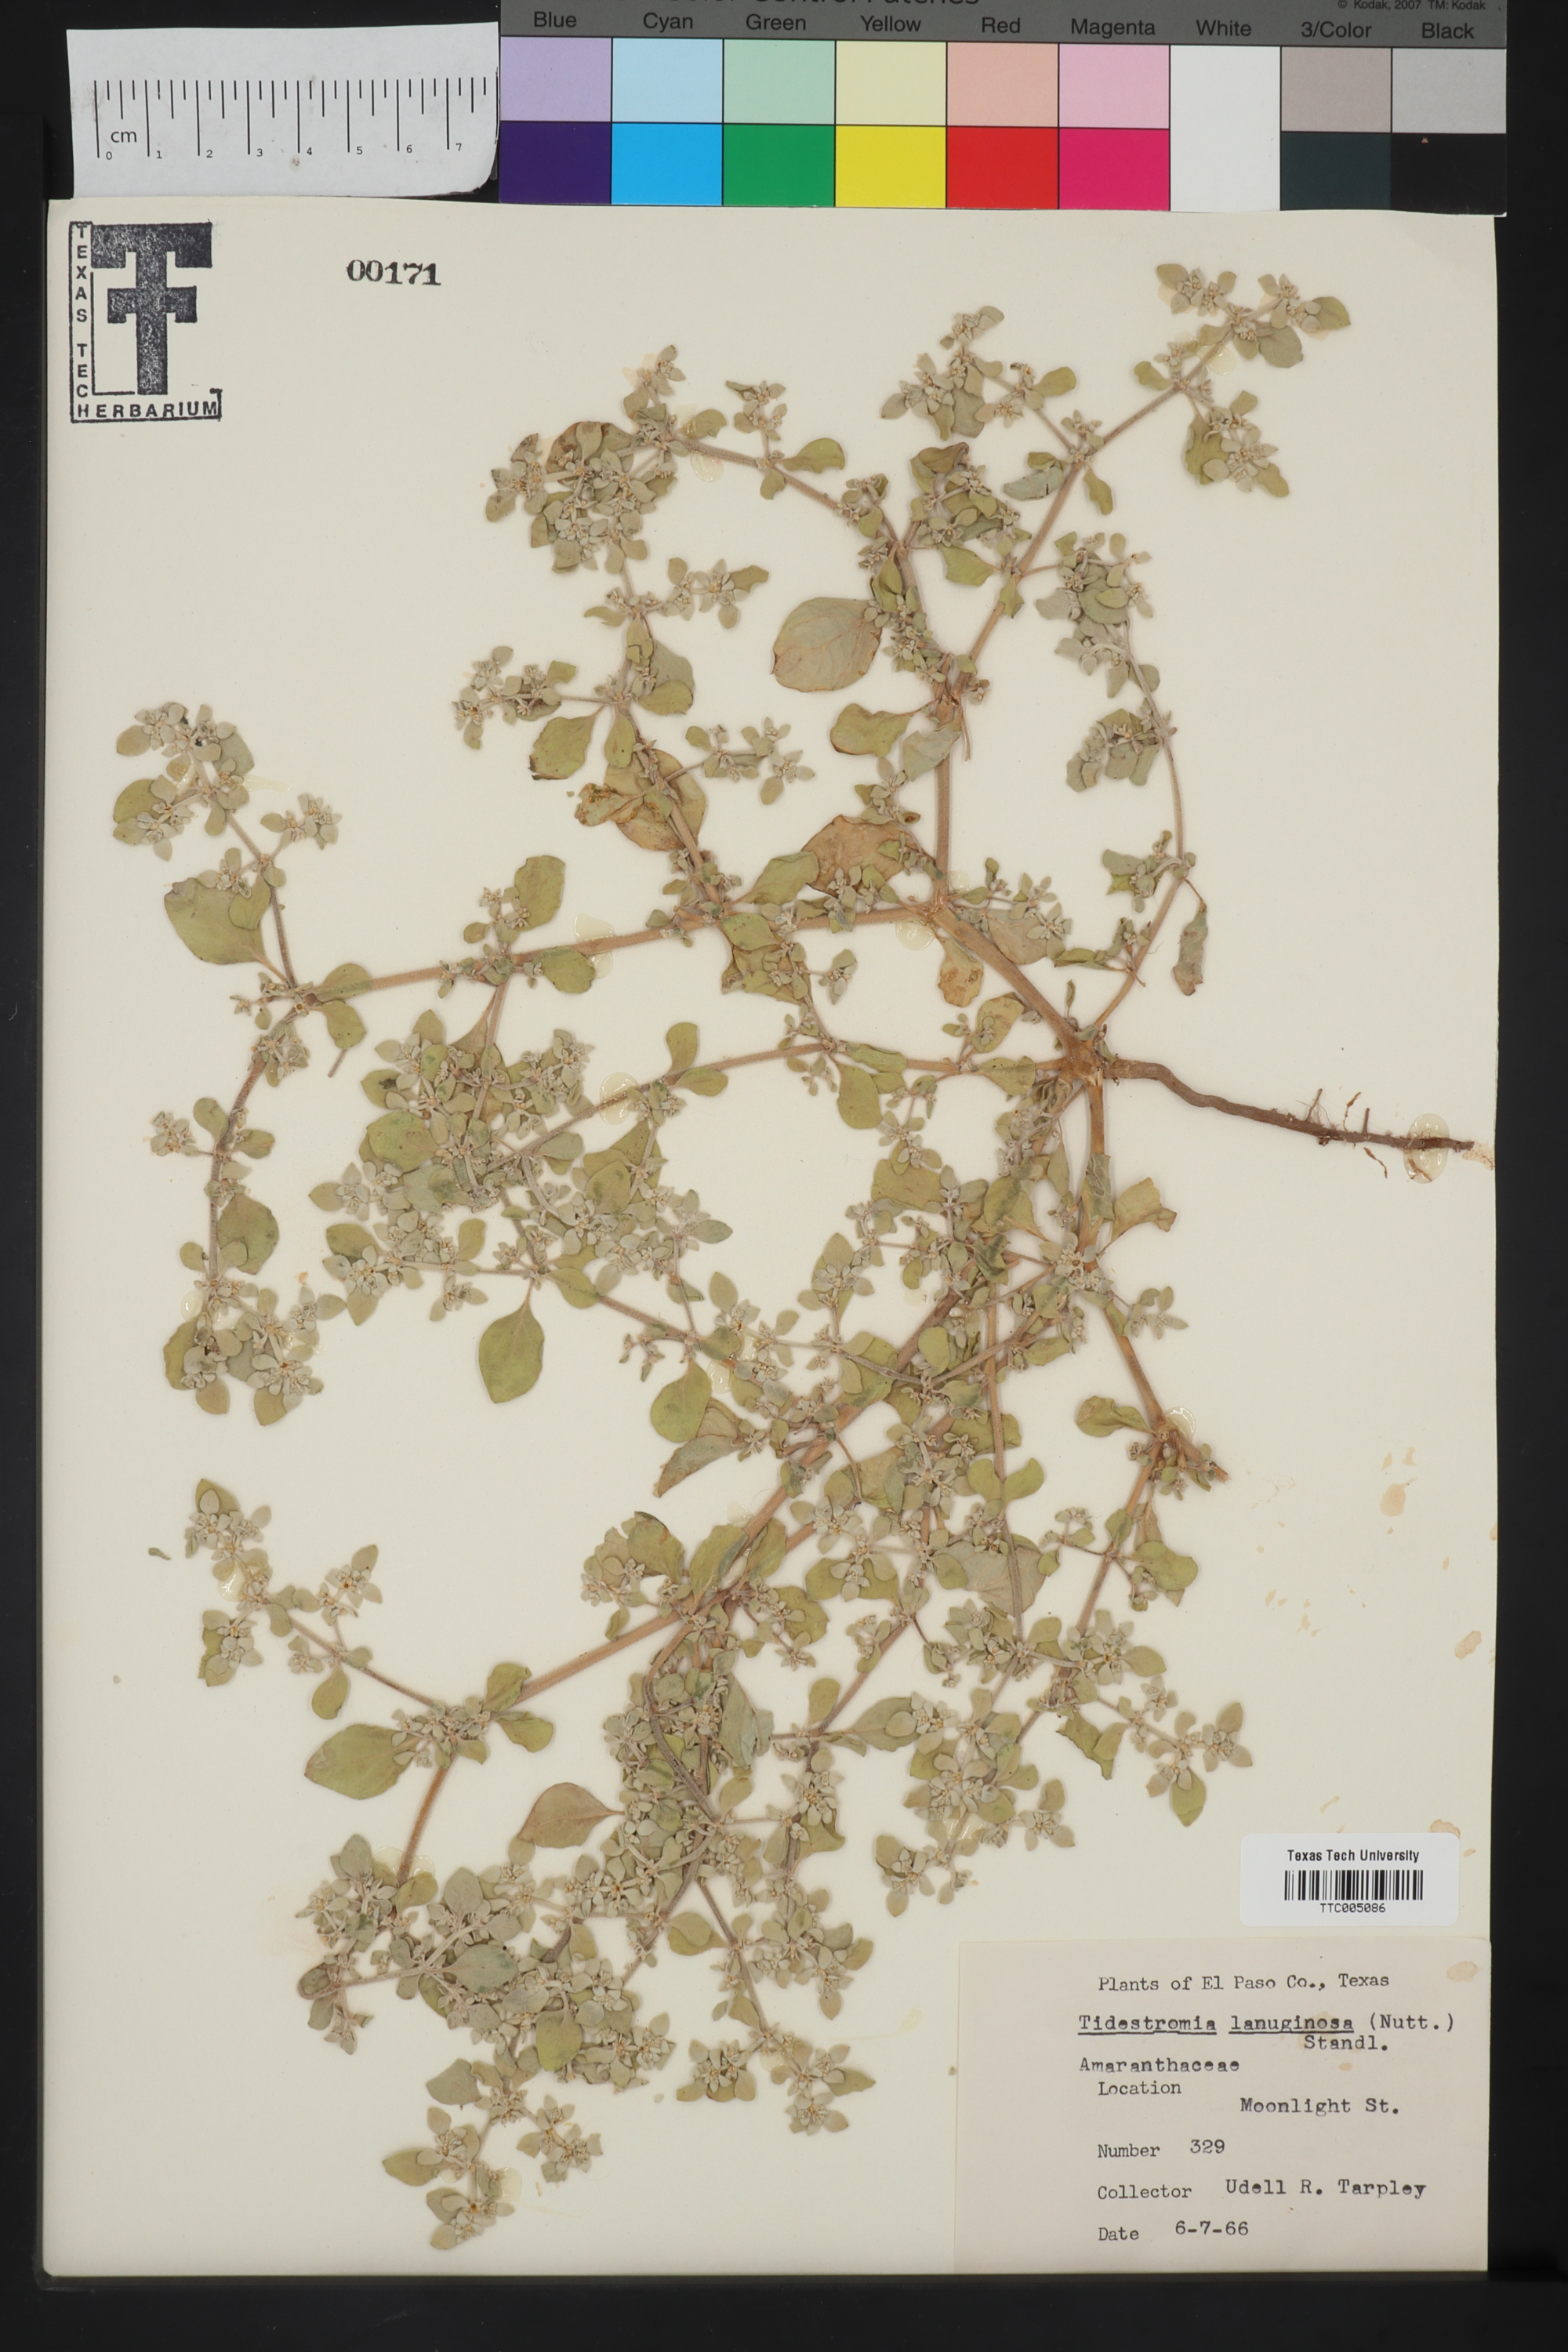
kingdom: Plantae
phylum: Tracheophyta
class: Magnoliopsida
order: Caryophyllales
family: Amaranthaceae
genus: Tidestromia
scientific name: Tidestromia lanuginosa
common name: Woolly tidestromia
